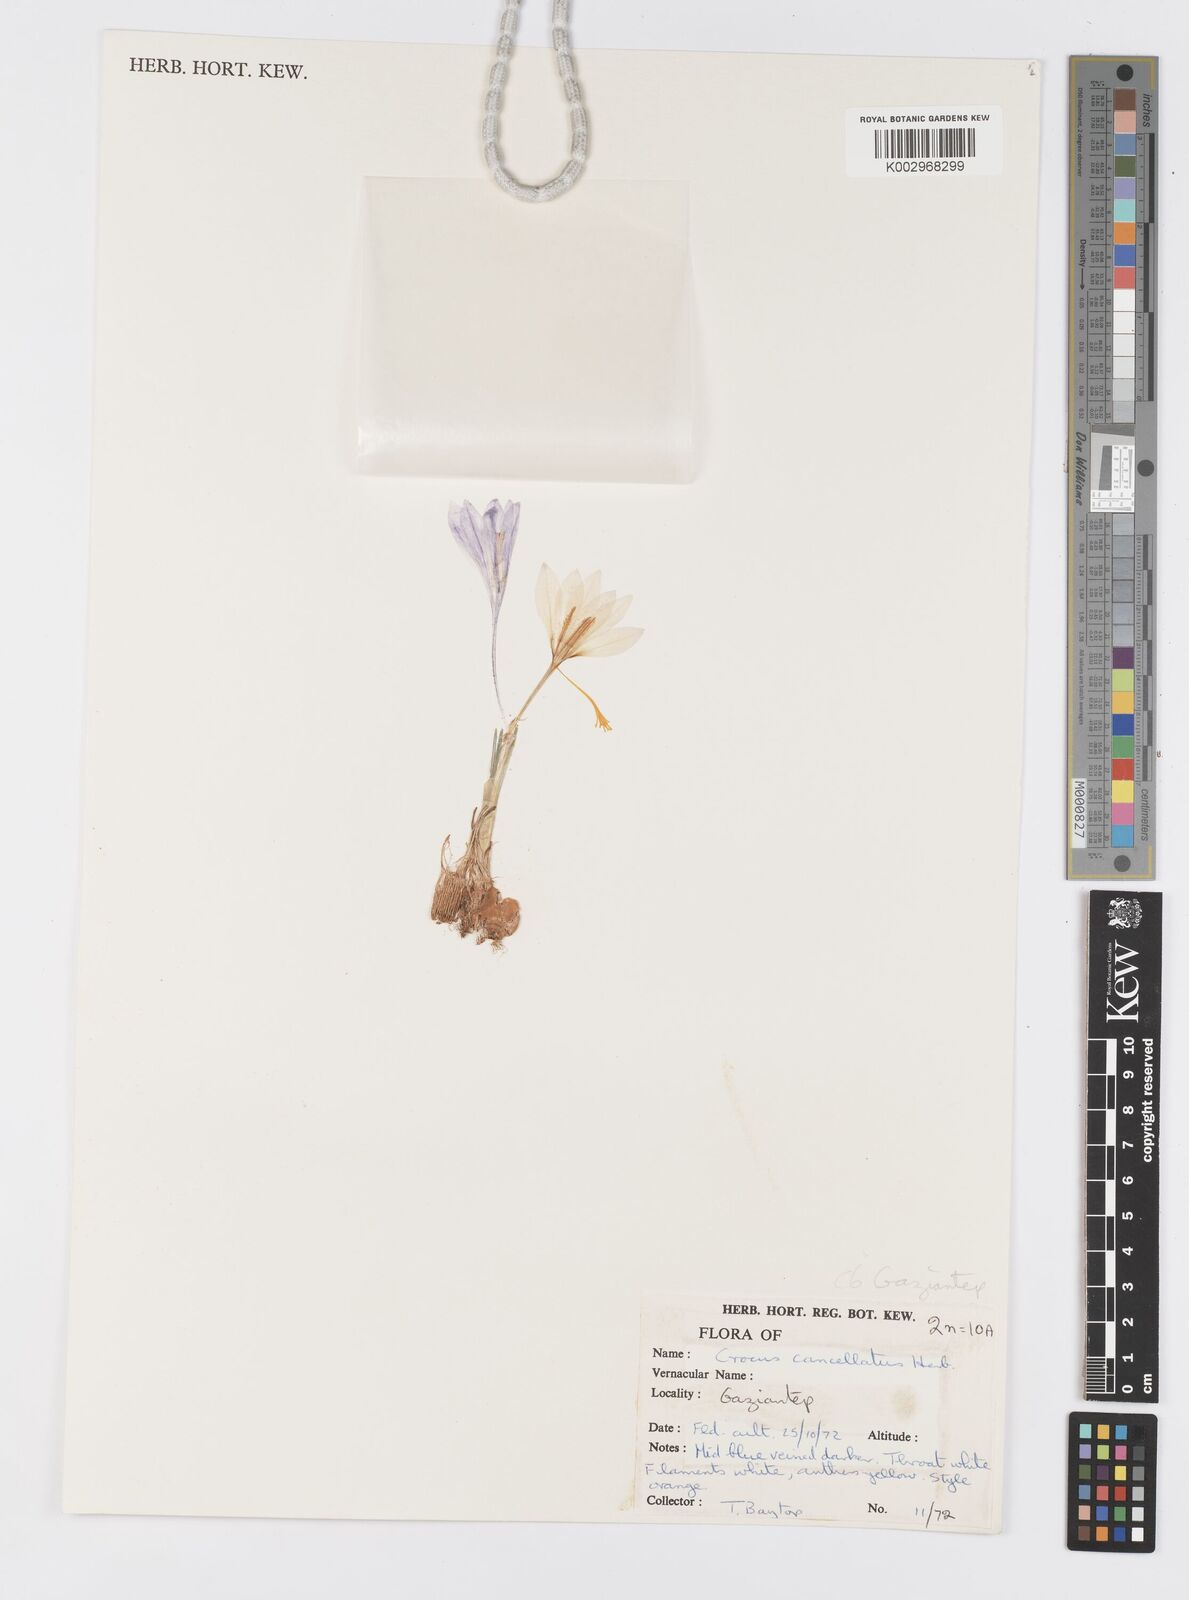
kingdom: Plantae
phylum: Tracheophyta
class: Liliopsida
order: Asparagales
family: Iridaceae
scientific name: Iridaceae
